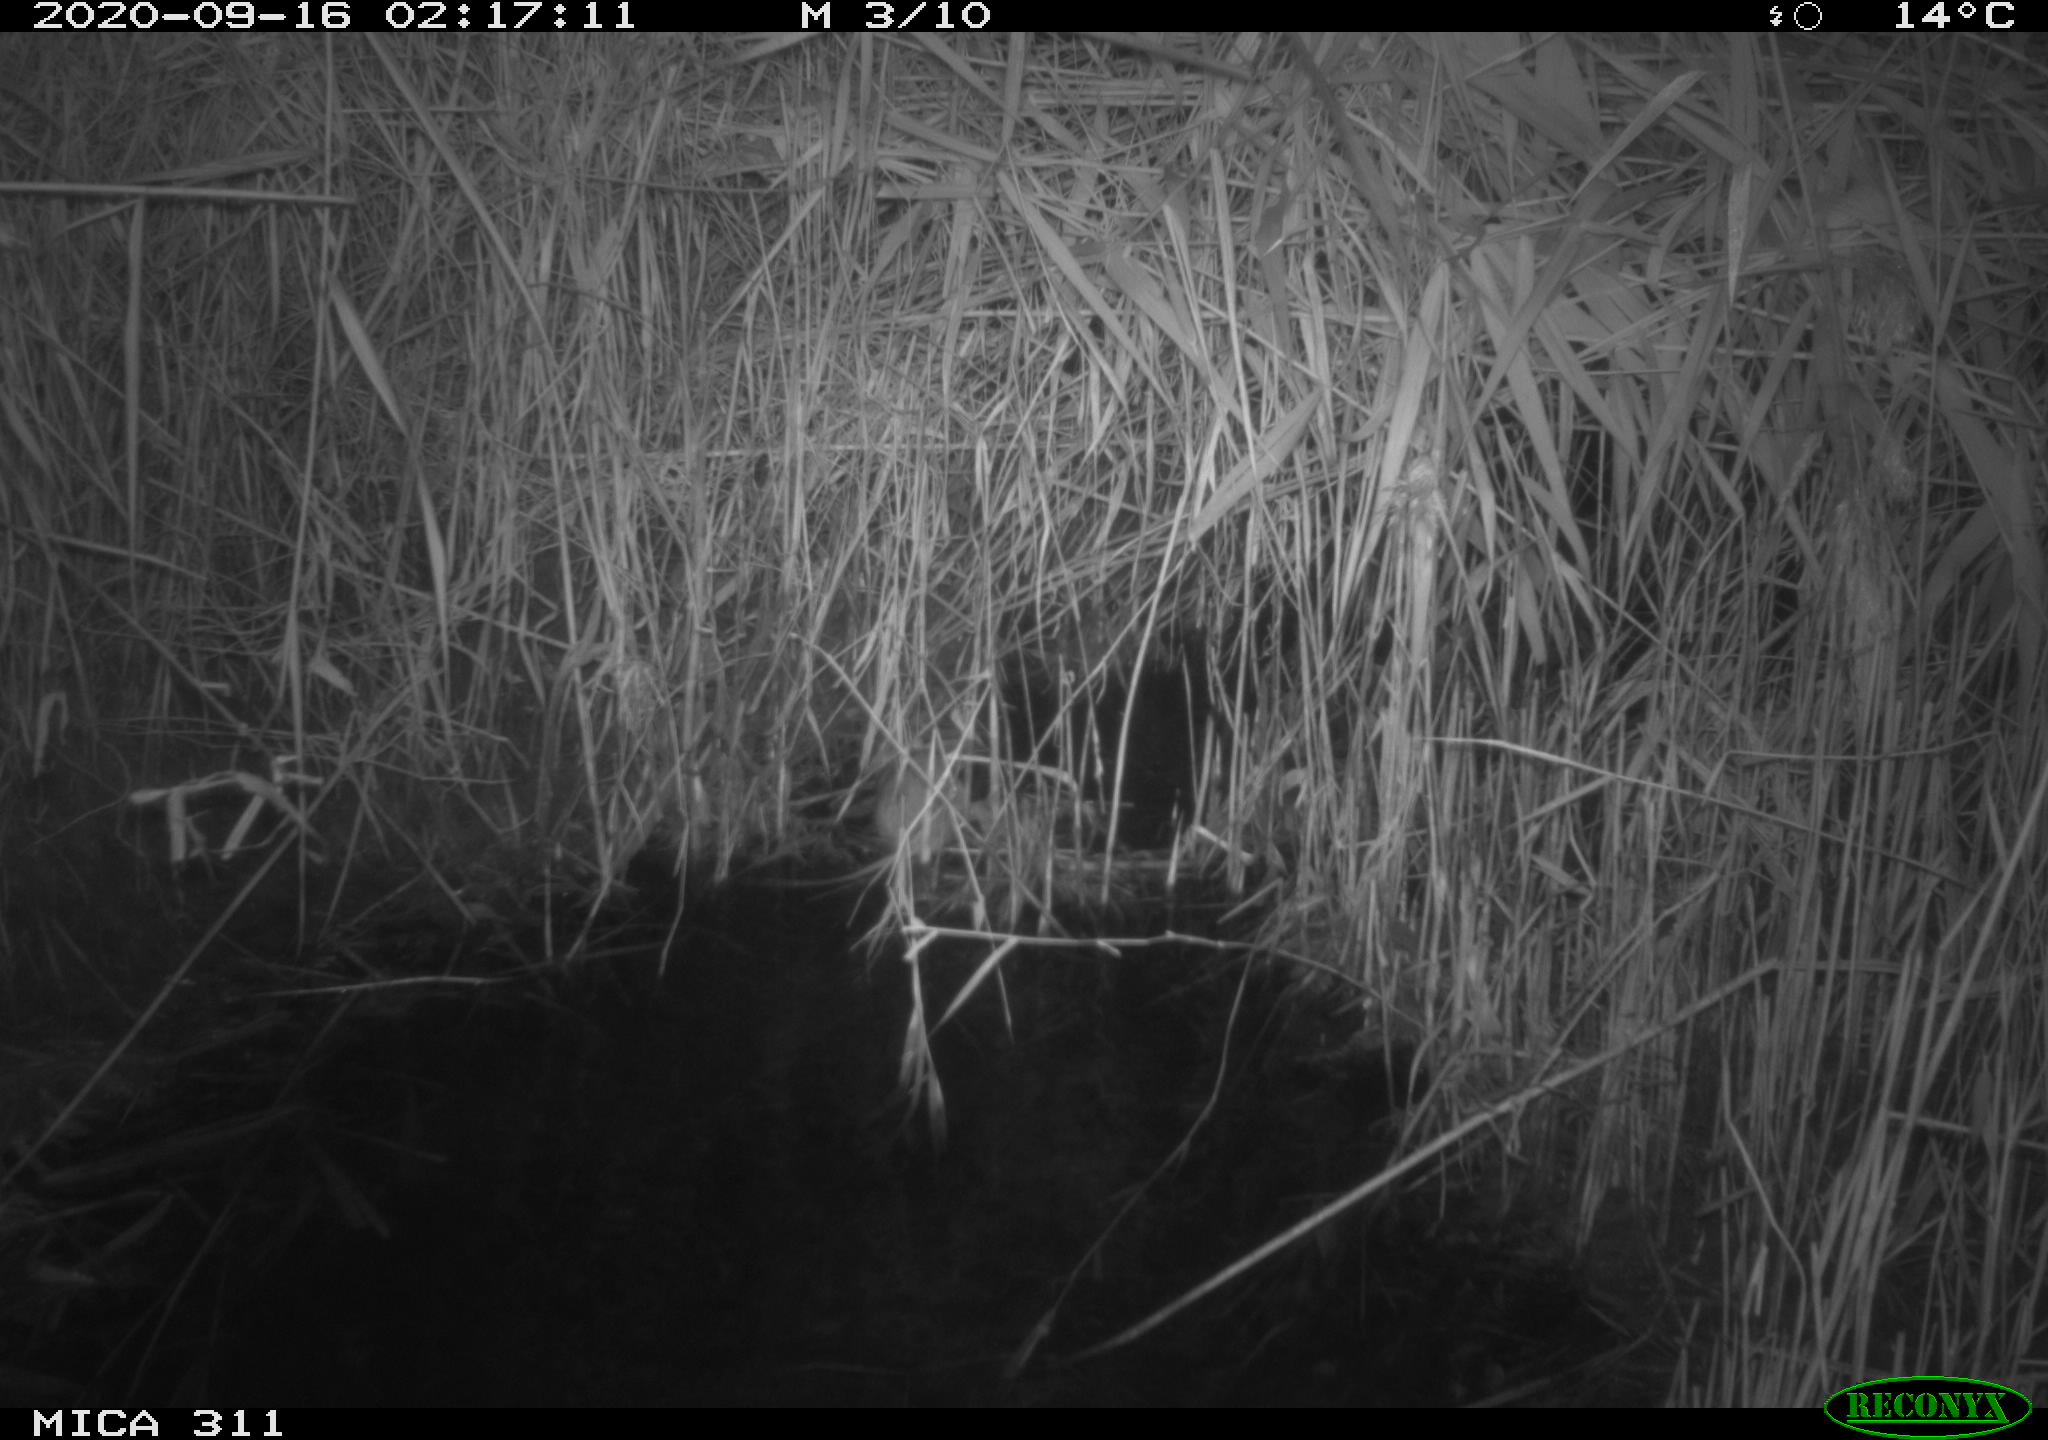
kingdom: Animalia
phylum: Chordata
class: Mammalia
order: Rodentia
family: Muridae
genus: Rattus
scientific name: Rattus norvegicus
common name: Brown rat
